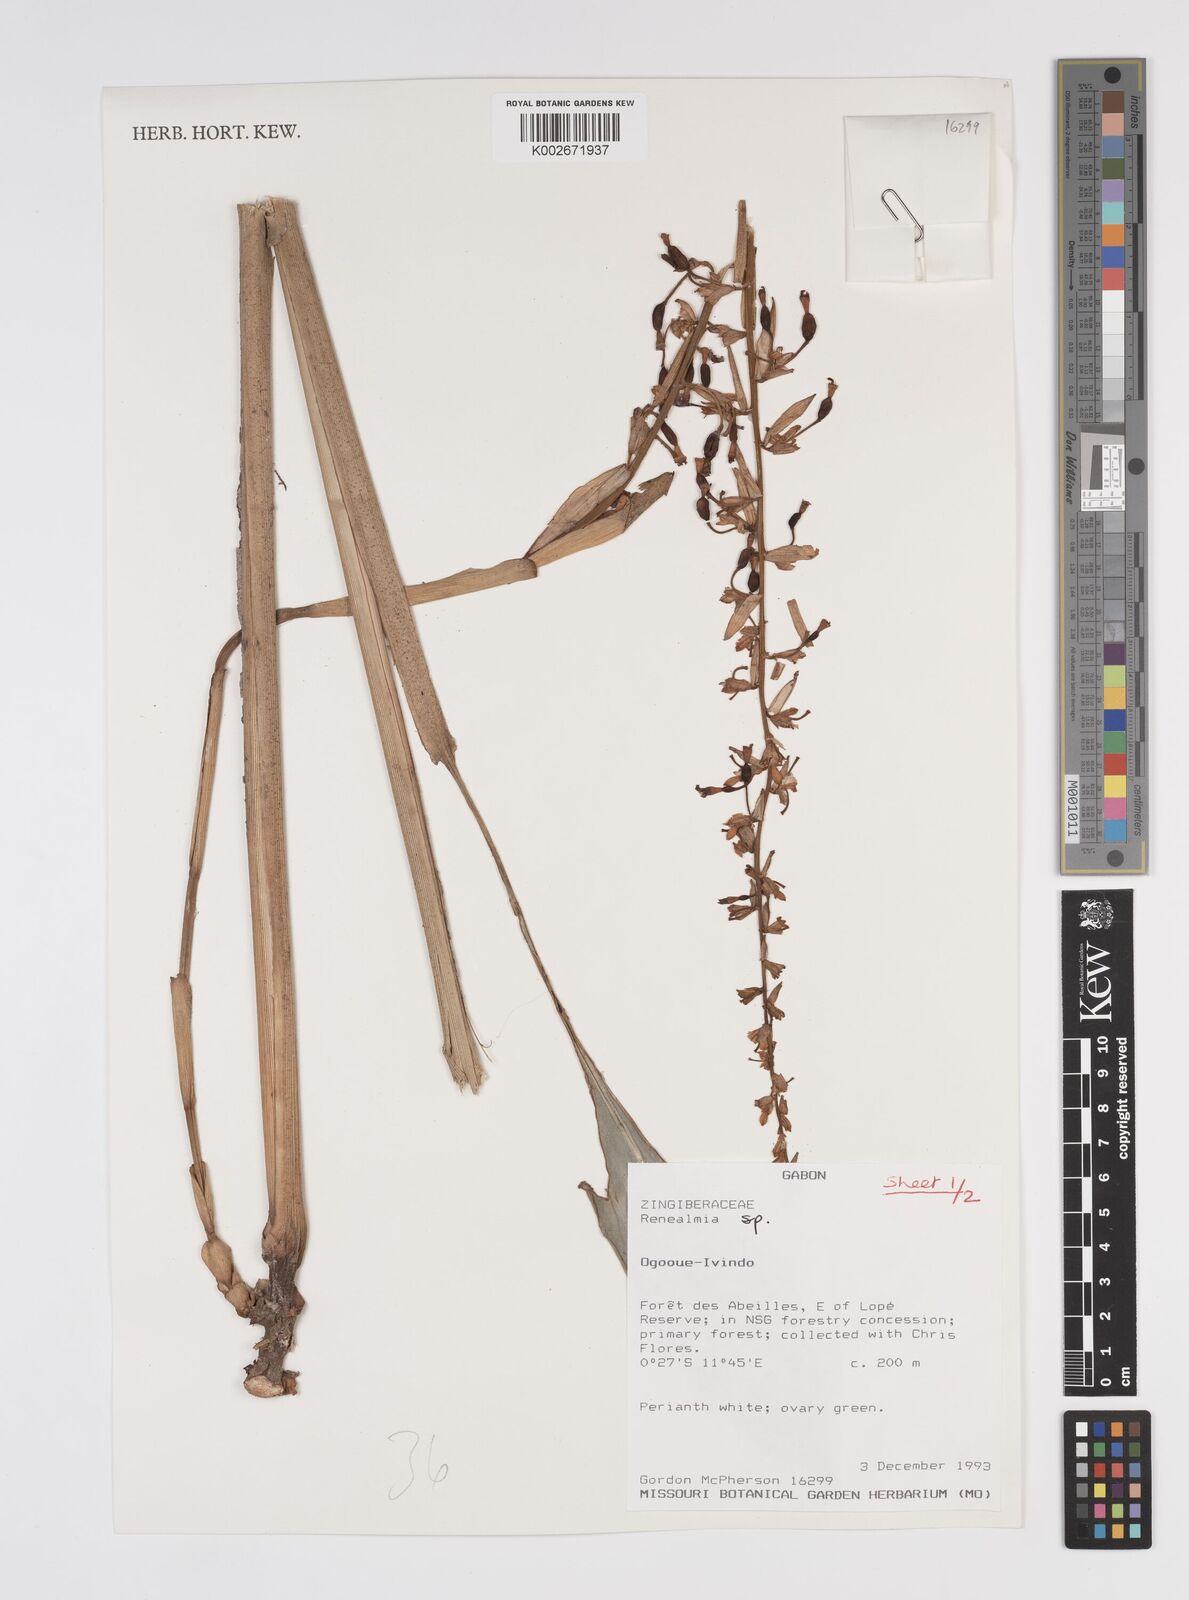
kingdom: Plantae
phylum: Tracheophyta
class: Liliopsida
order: Zingiberales
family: Zingiberaceae
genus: Renealmia
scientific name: Renealmia
